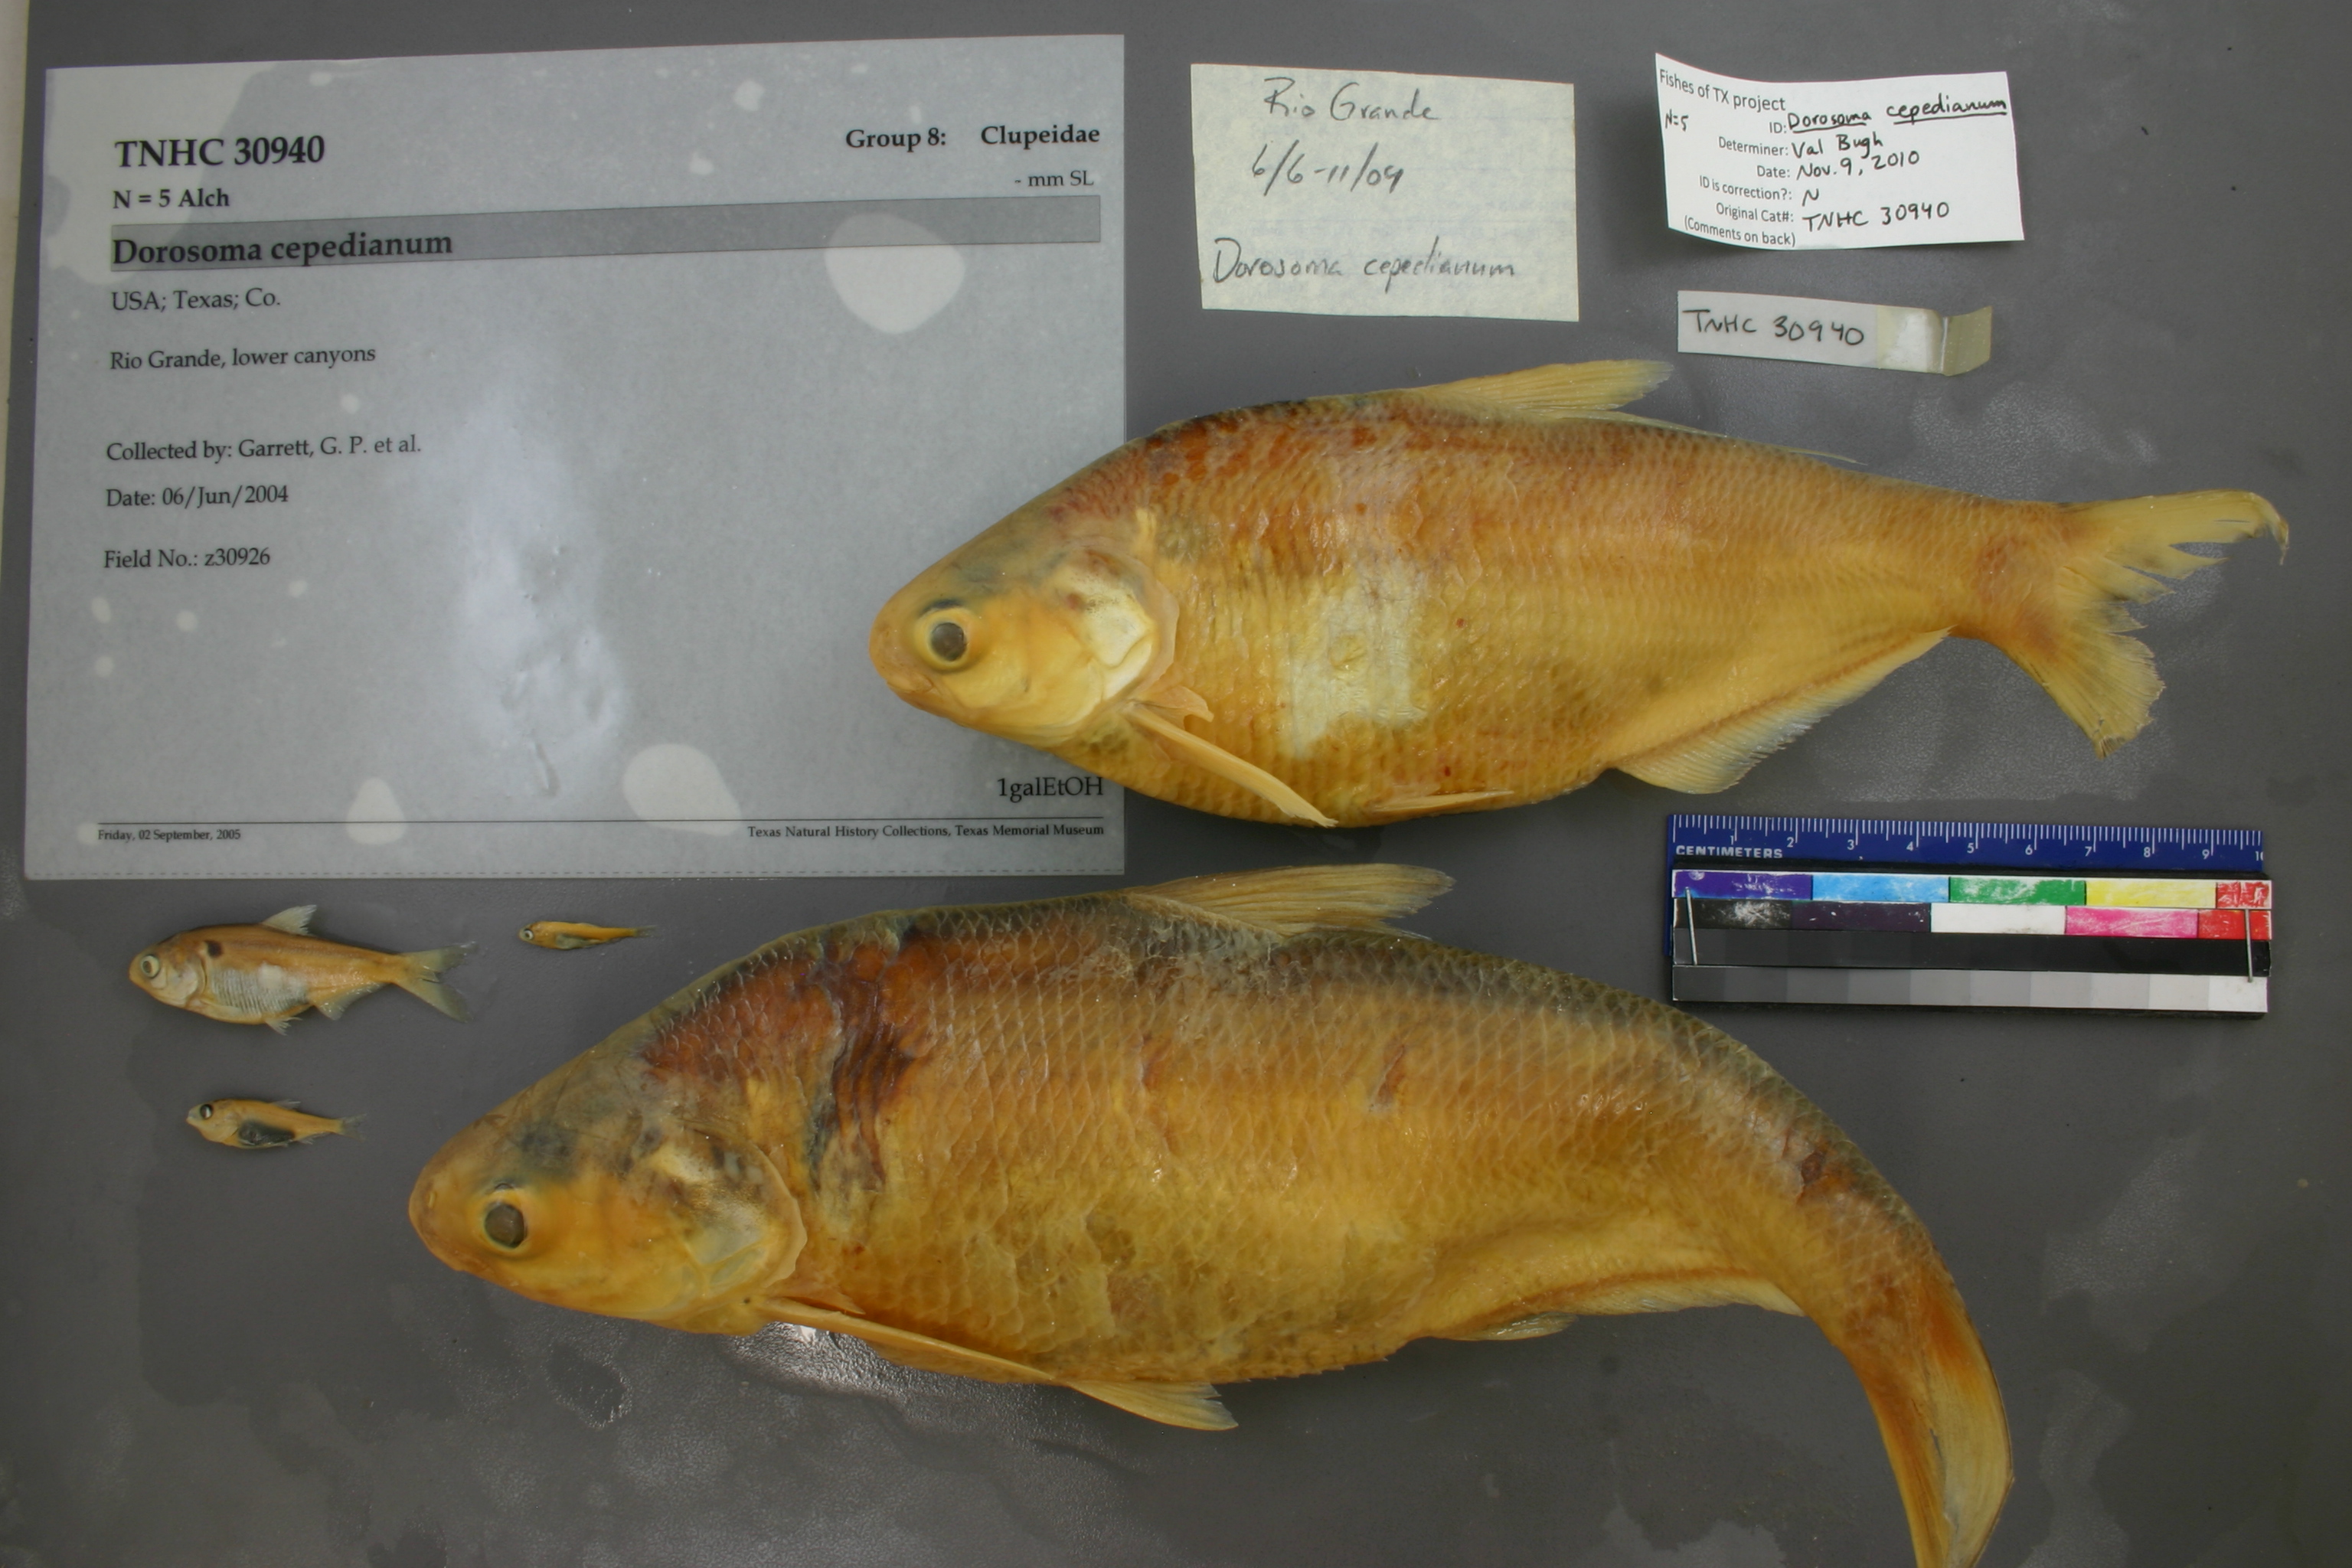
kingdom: Animalia
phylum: Chordata
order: Clupeiformes
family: Clupeidae
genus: Dorosoma
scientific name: Dorosoma cepedianum
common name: Gizzard shad
